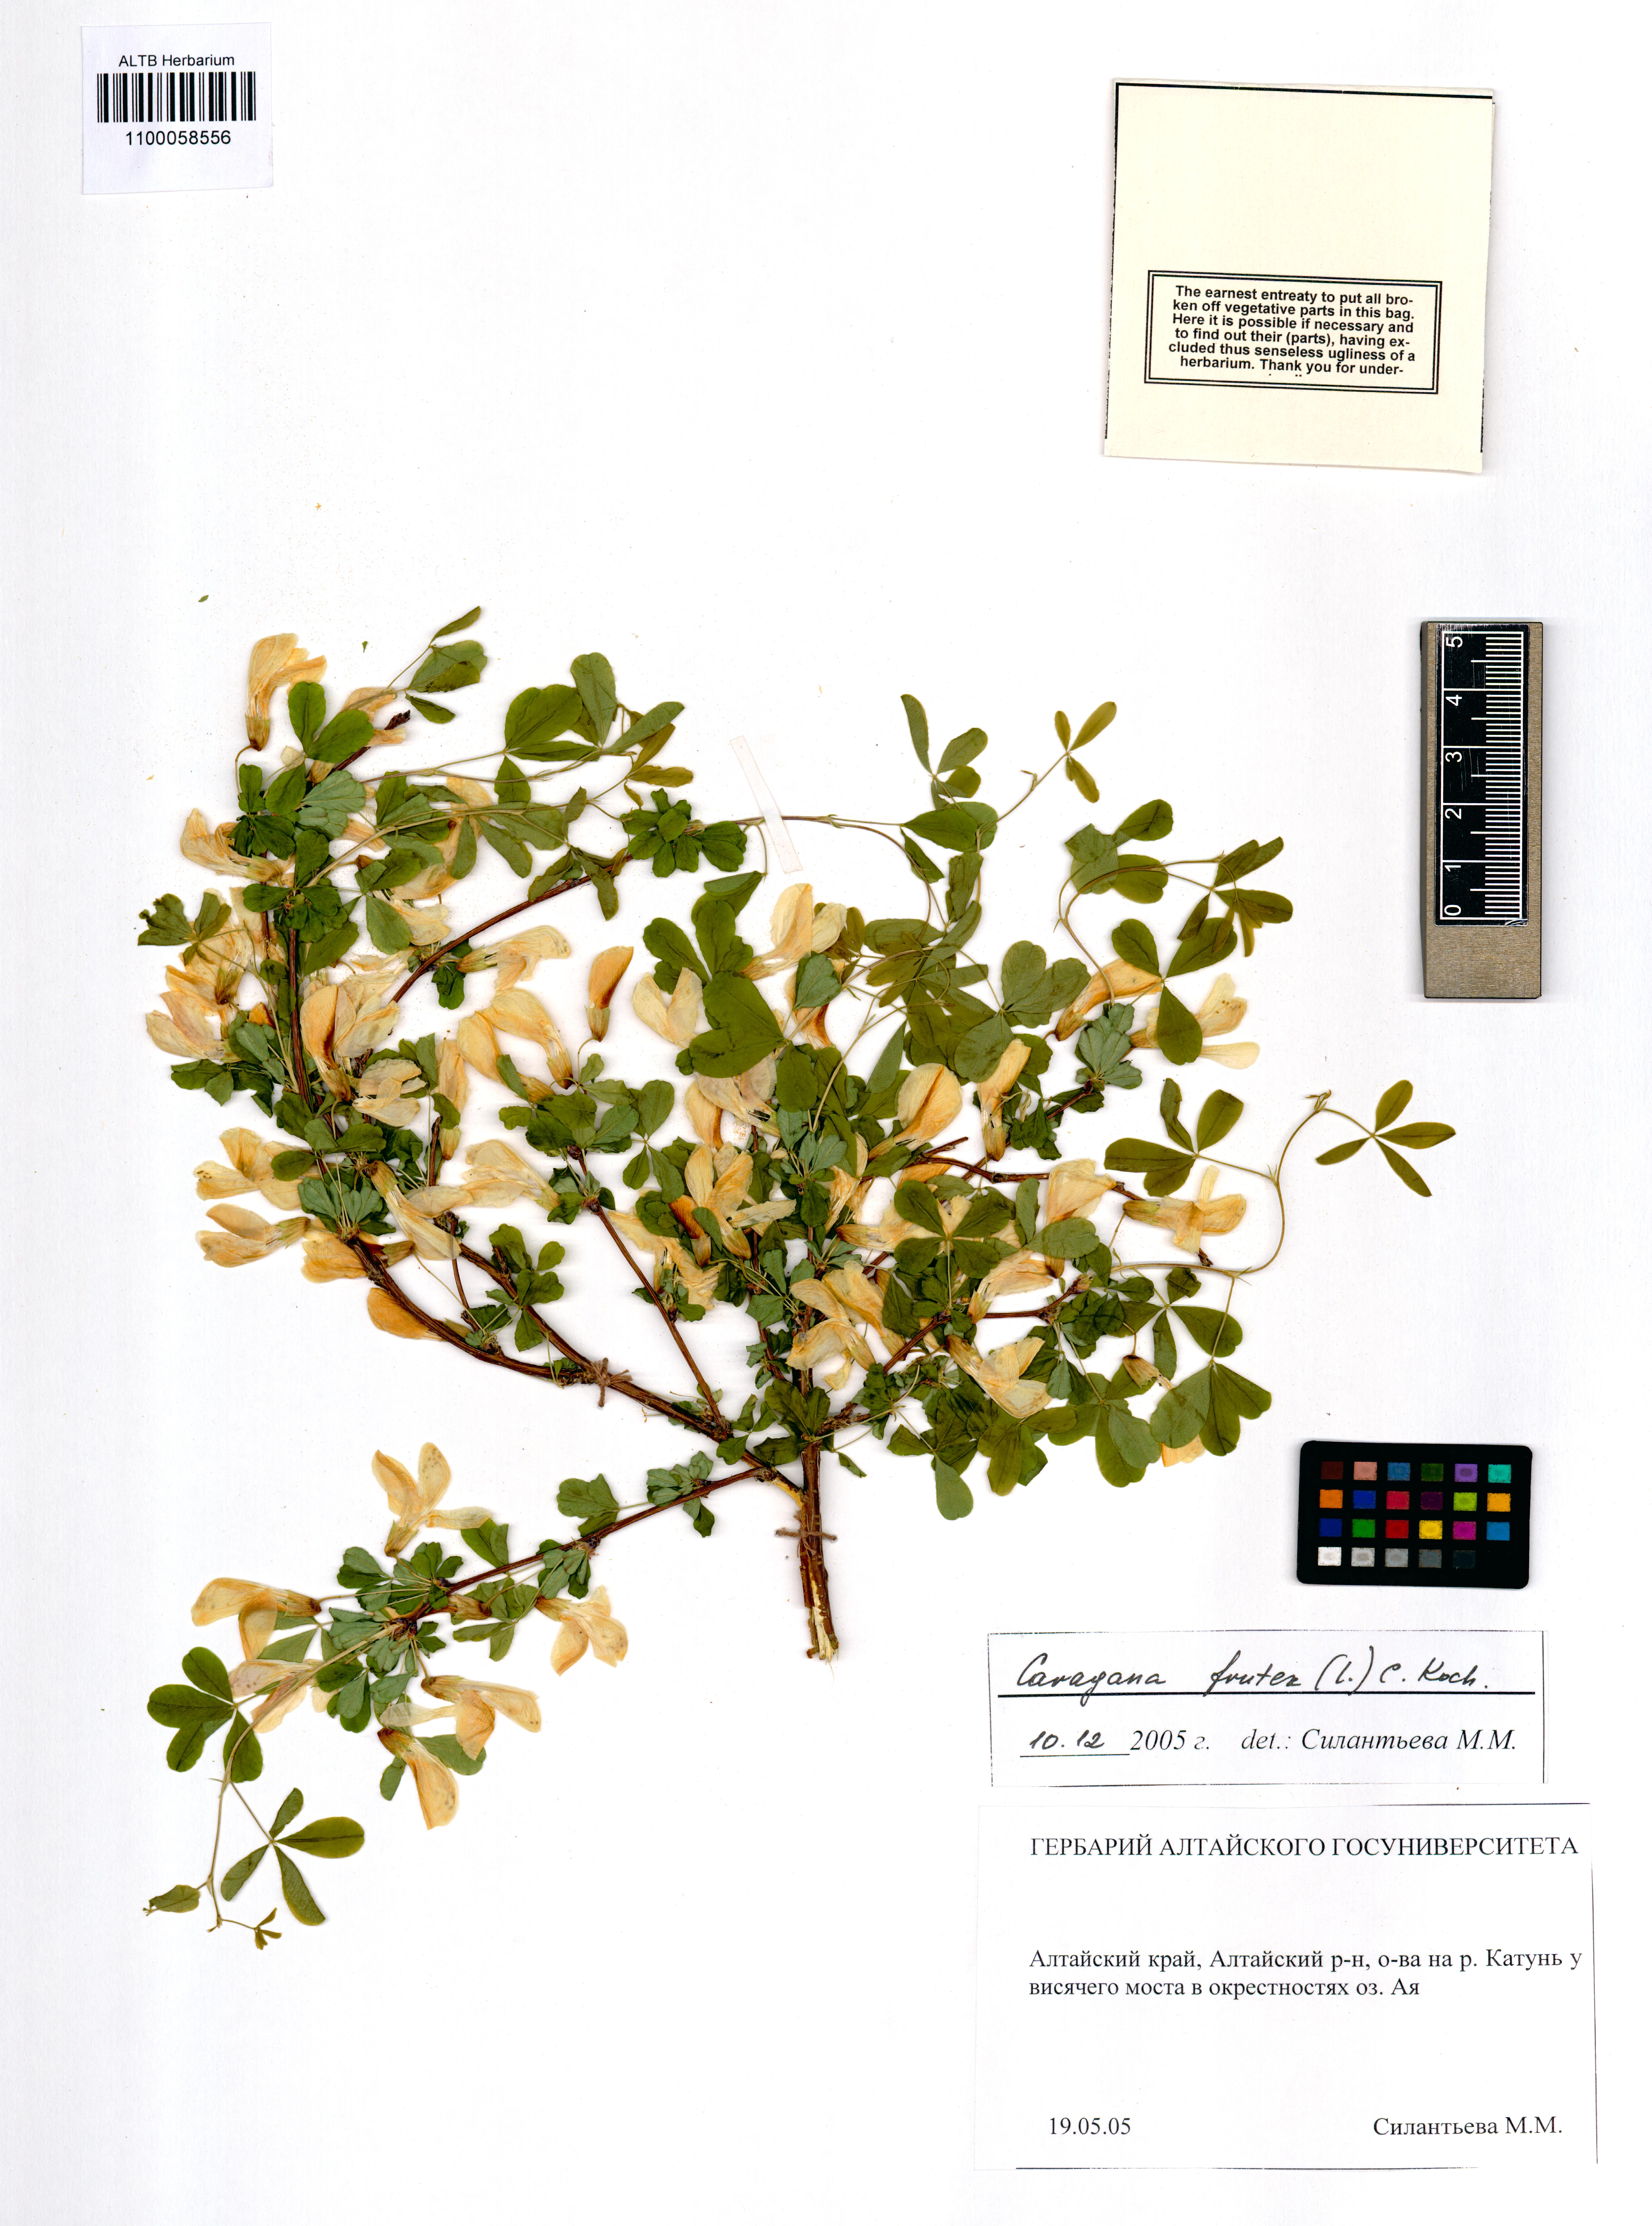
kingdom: Plantae
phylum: Tracheophyta
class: Magnoliopsida
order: Fabales
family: Fabaceae
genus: Caragana
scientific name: Caragana frutex
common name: Russian peashrub
